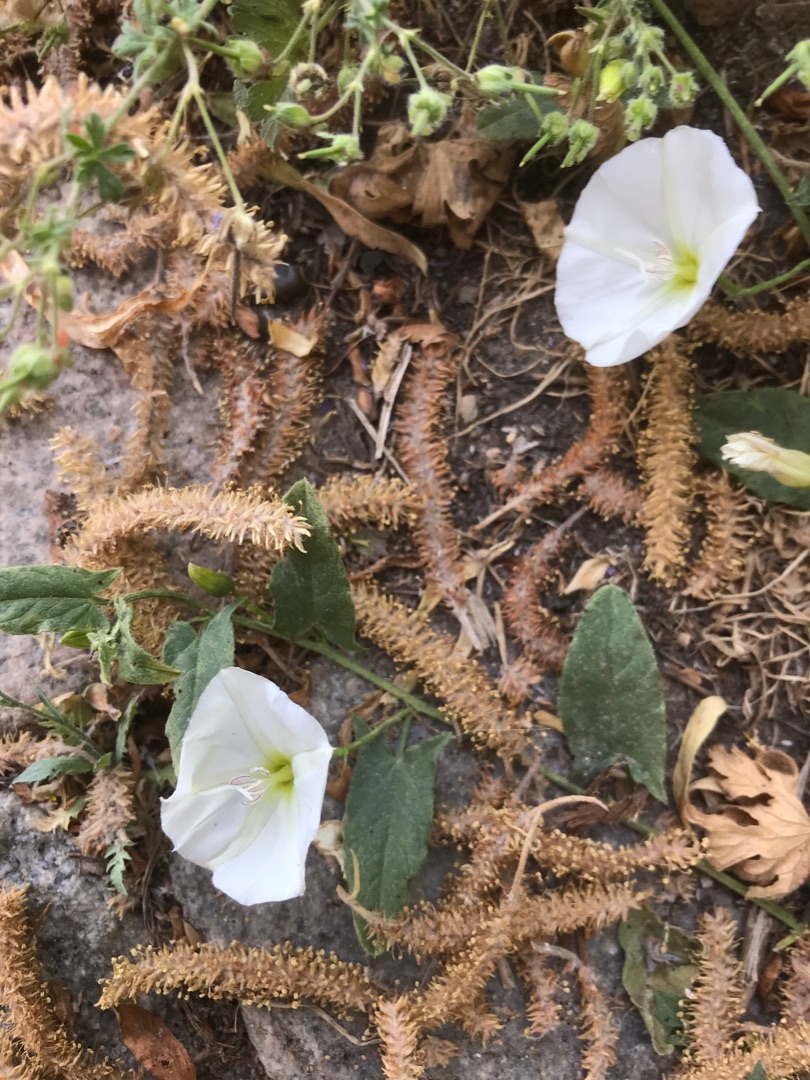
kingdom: Plantae
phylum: Tracheophyta
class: Magnoliopsida
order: Solanales
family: Convolvulaceae
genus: Convolvulus
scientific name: Convolvulus arvensis
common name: Ager-snerle
